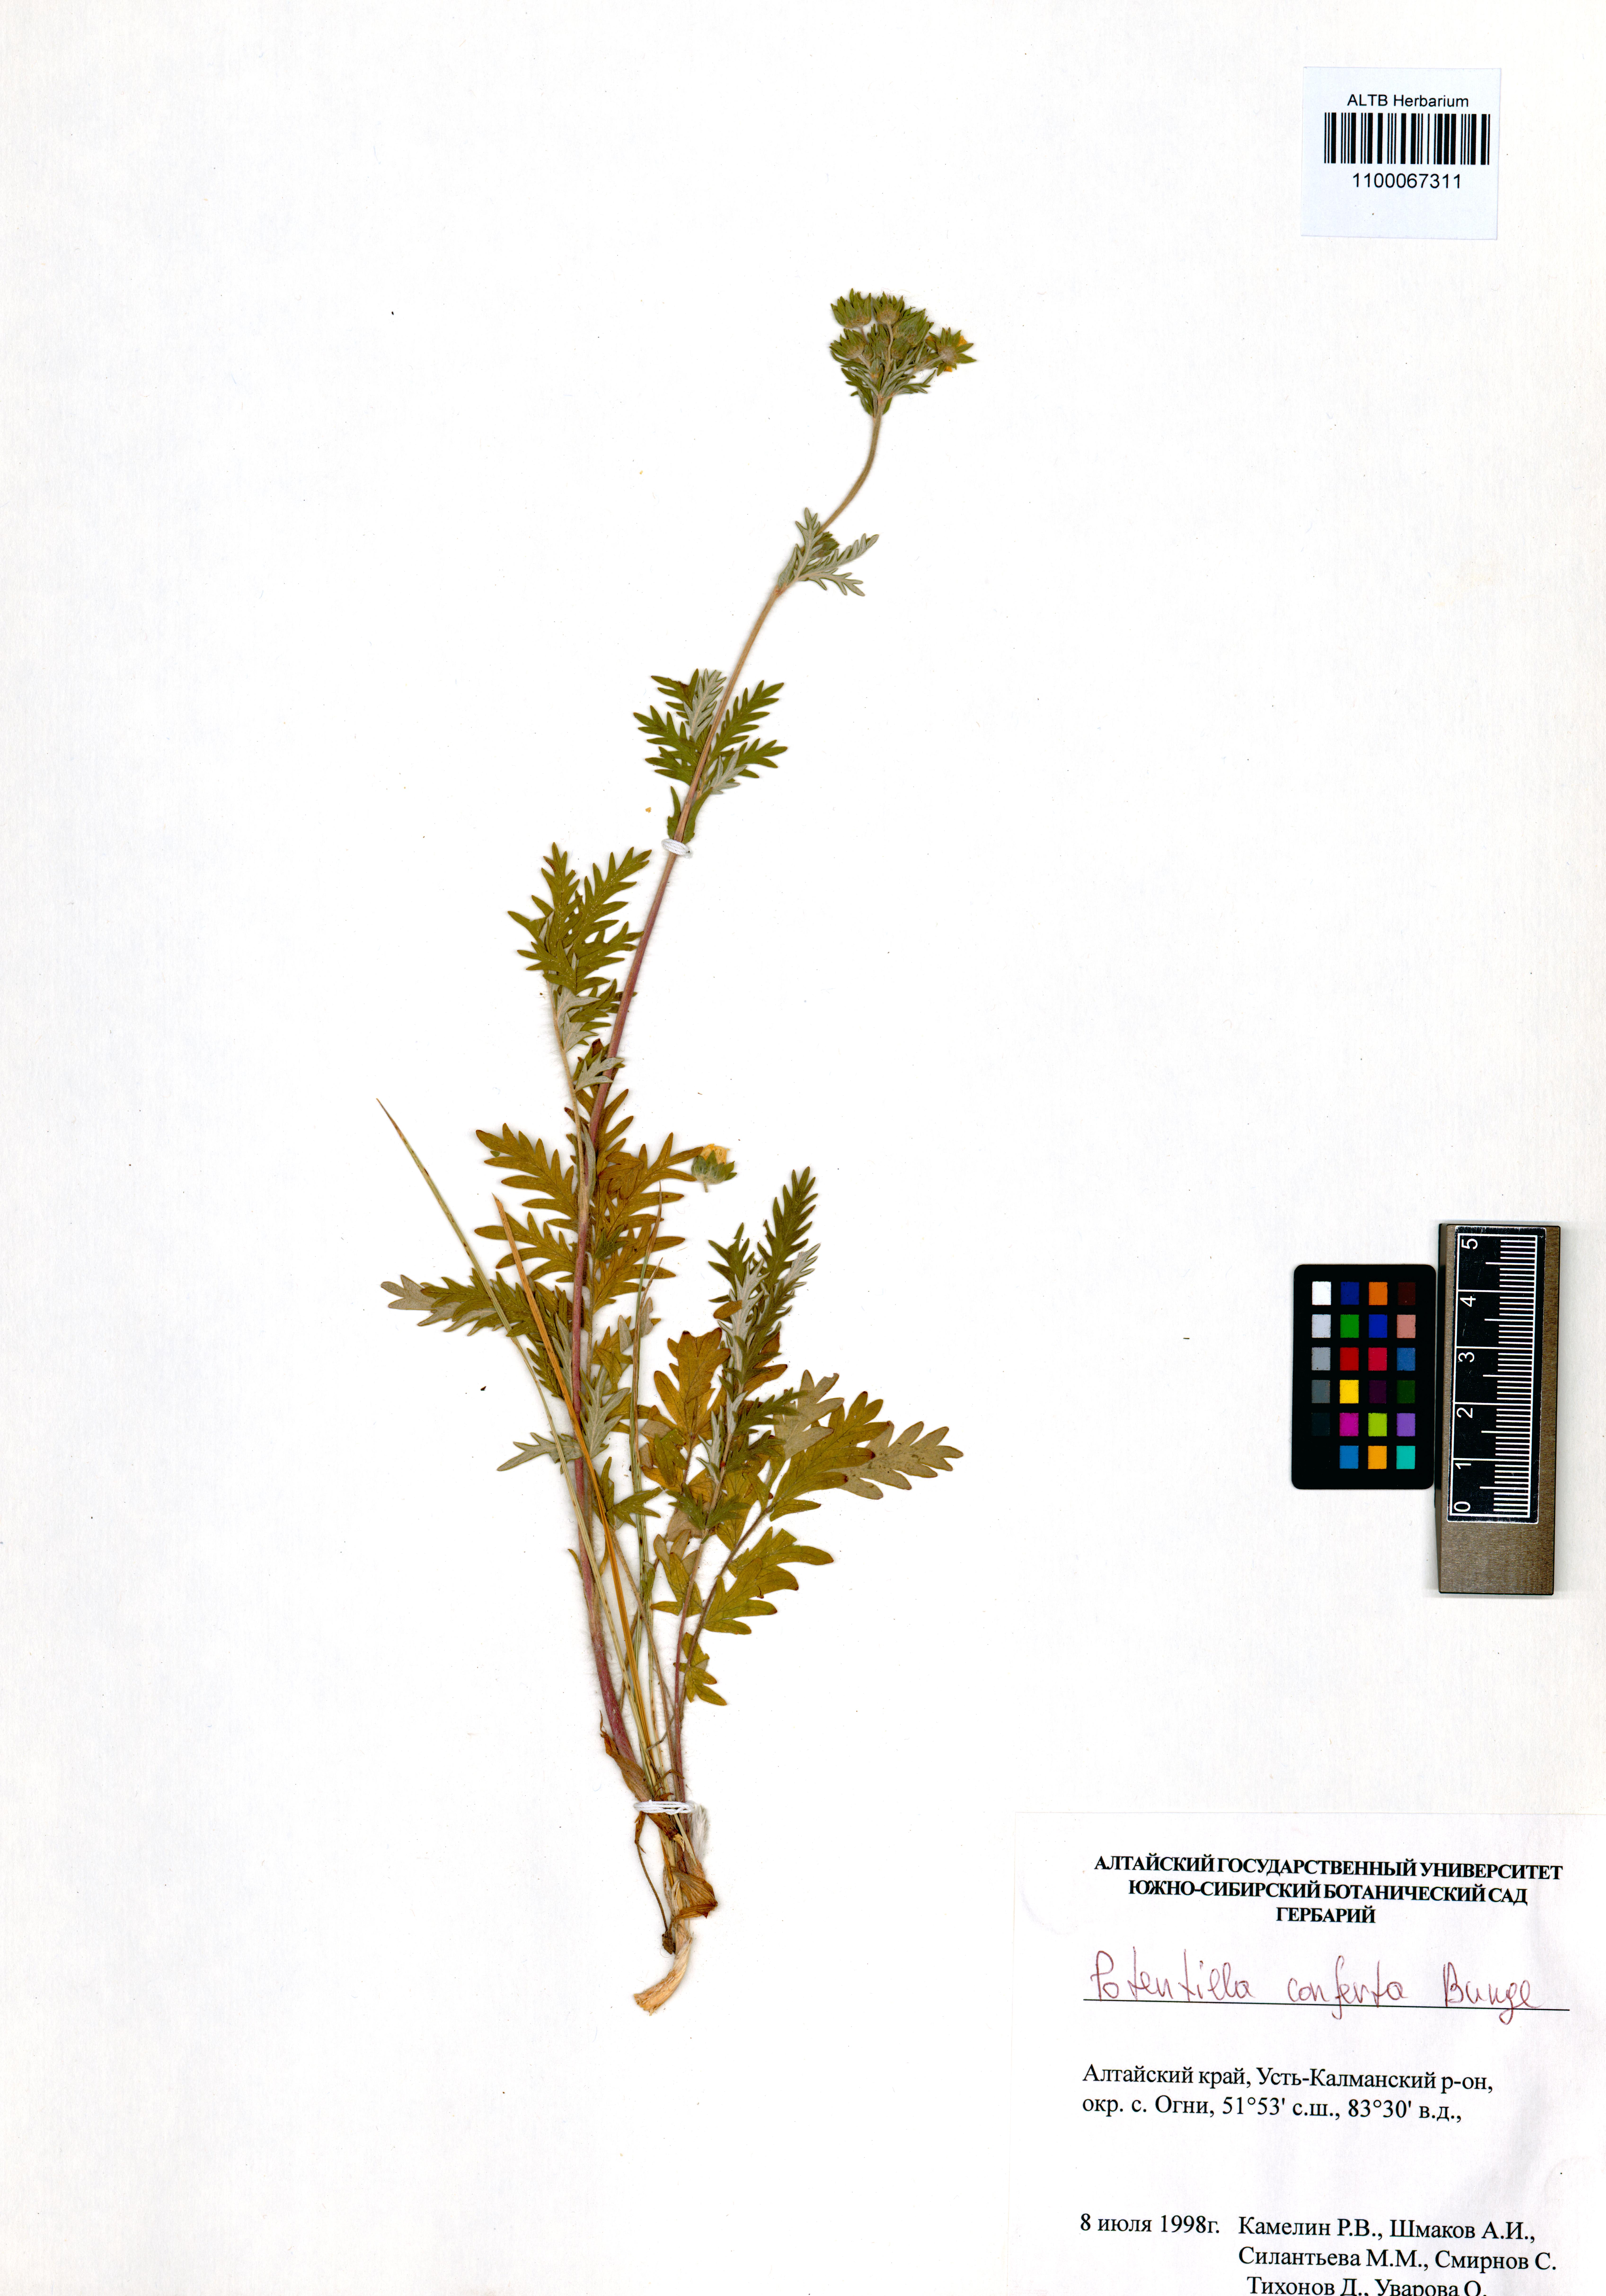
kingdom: Plantae
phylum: Tracheophyta
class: Magnoliopsida
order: Rosales
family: Rosaceae
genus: Potentilla
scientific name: Potentilla conferta
